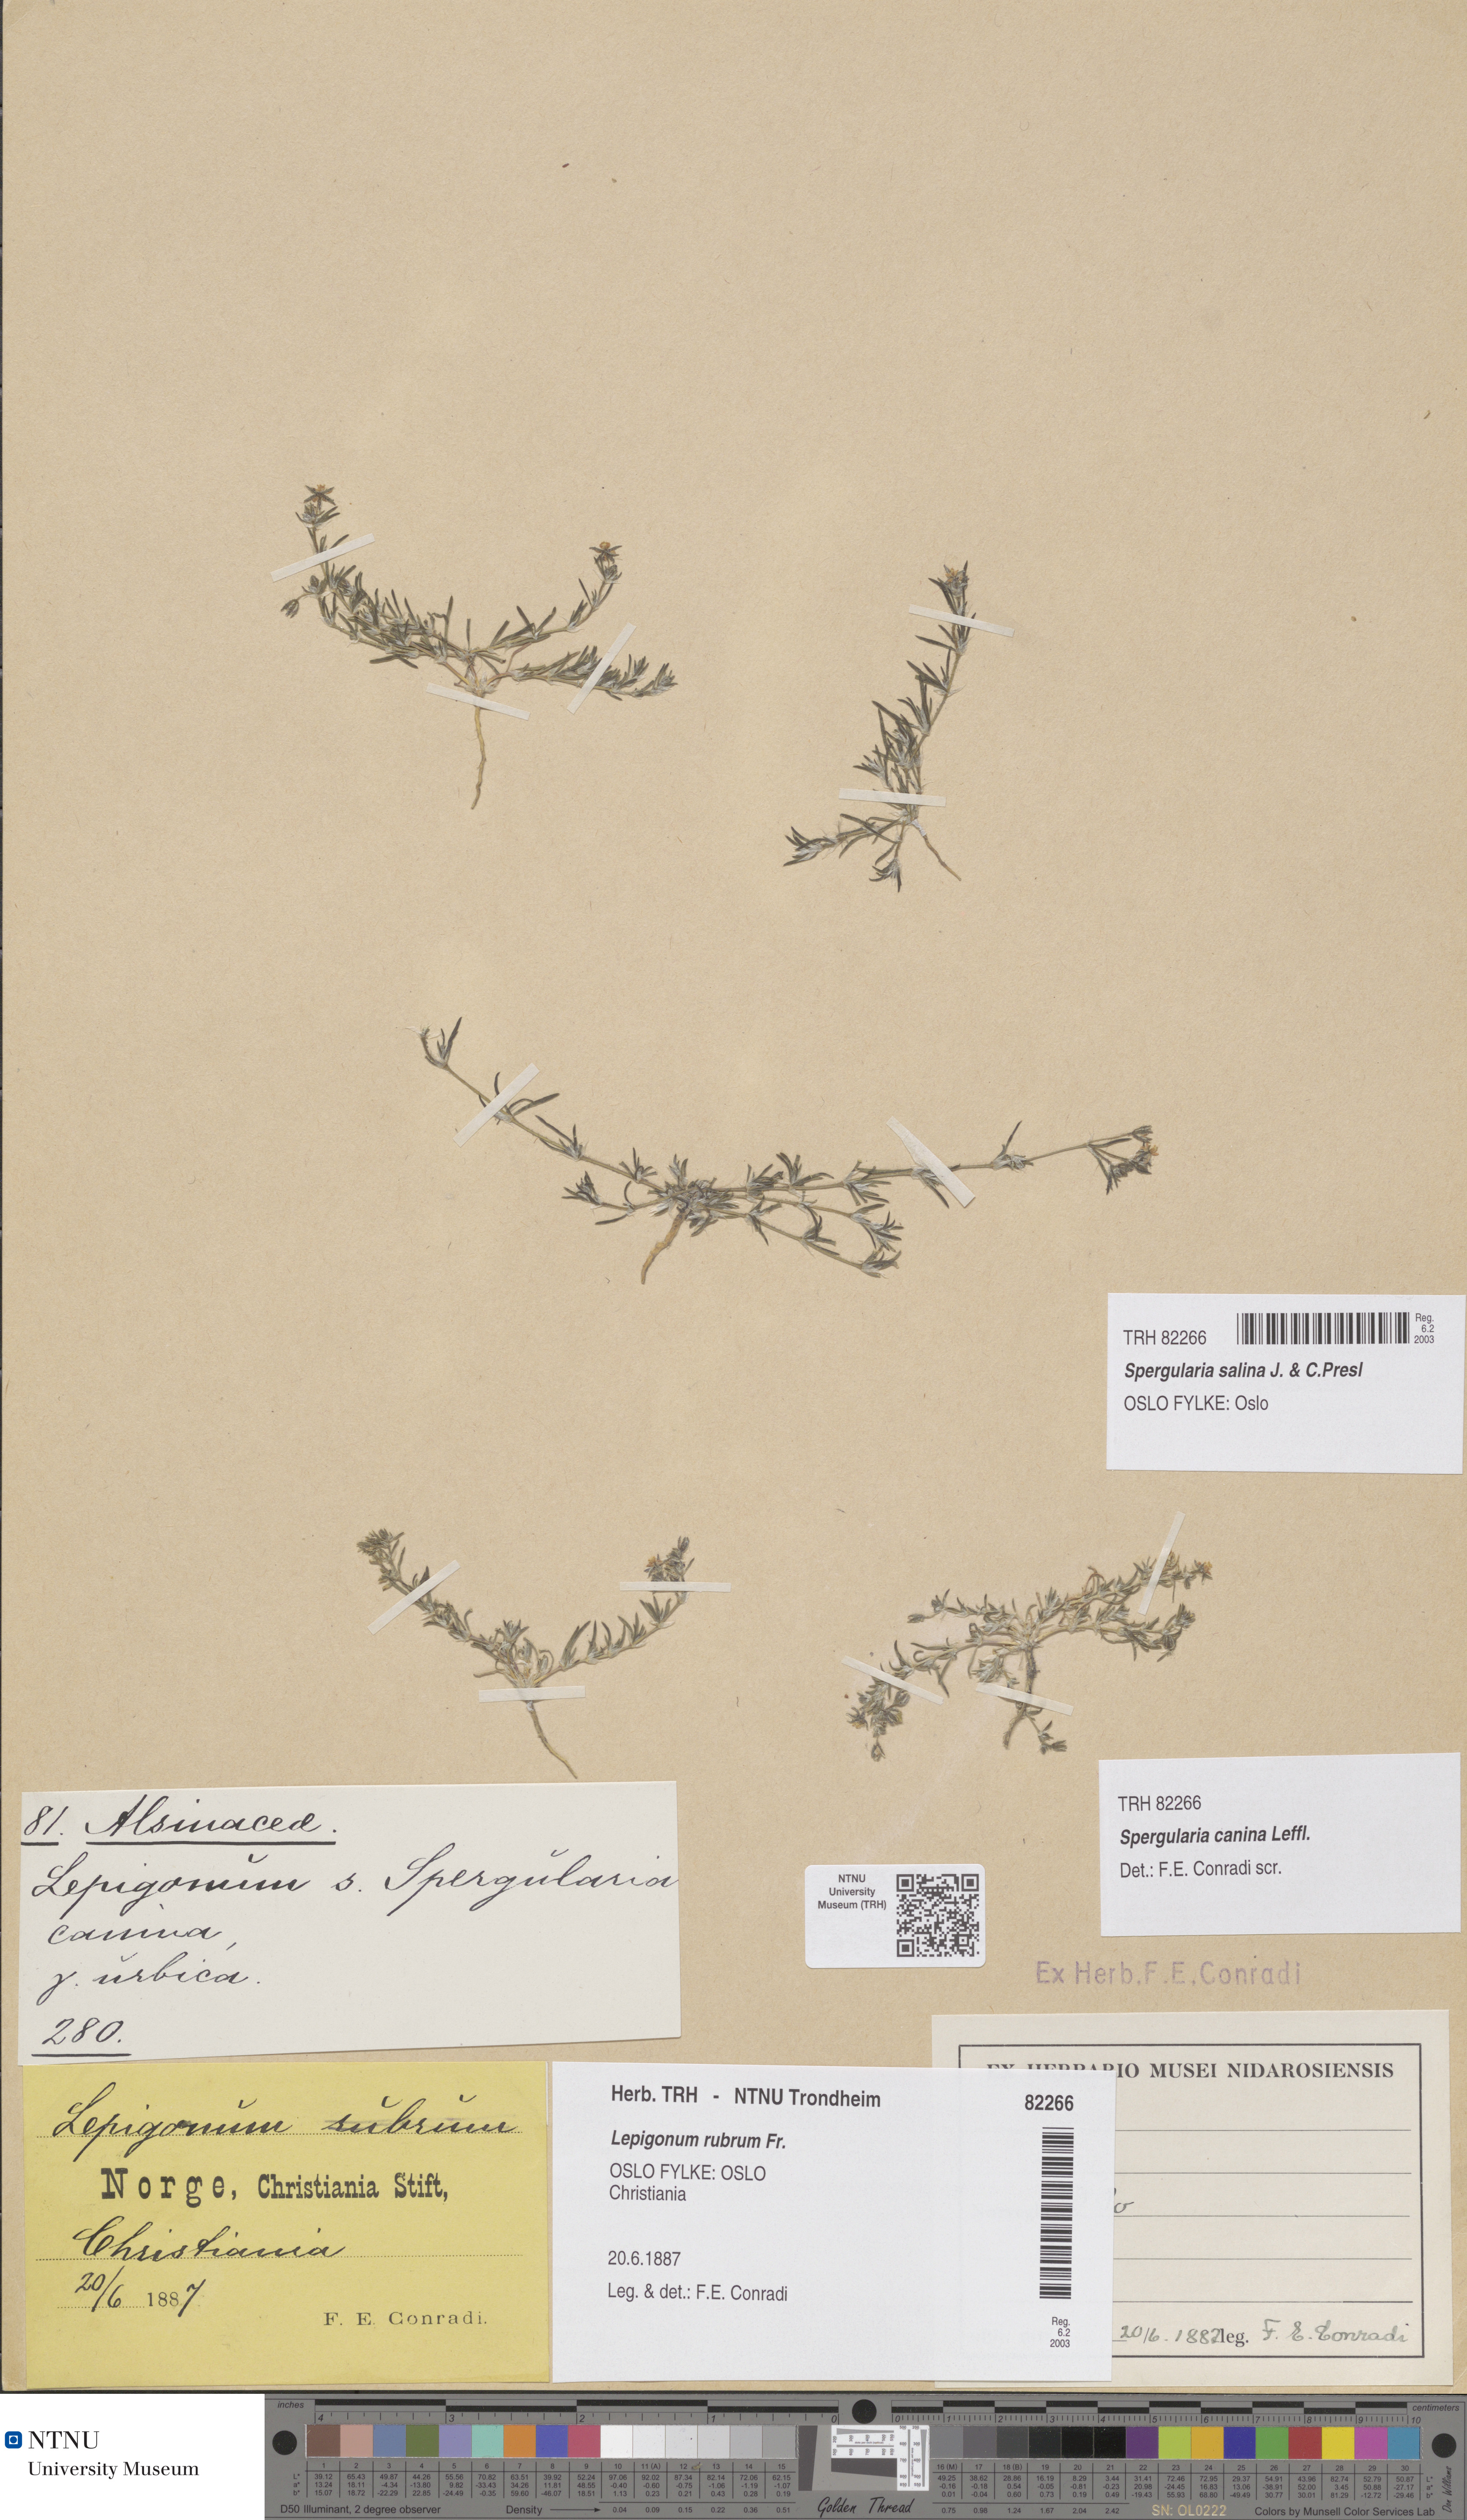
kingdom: Plantae
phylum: Tracheophyta
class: Magnoliopsida
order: Caryophyllales
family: Caryophyllaceae
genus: Spergularia
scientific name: Spergularia marina
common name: Lesser sea-spurrey
